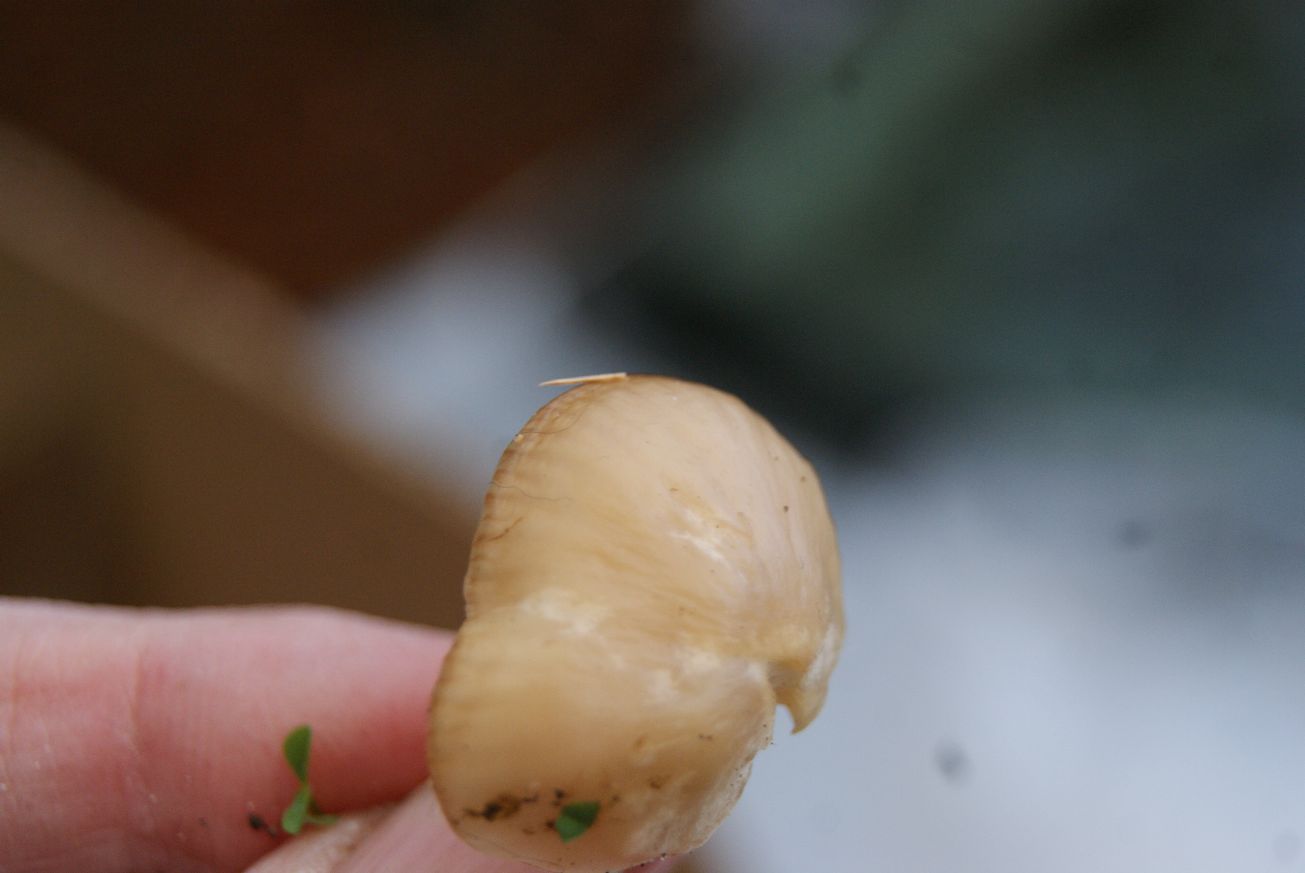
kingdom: Fungi
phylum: Basidiomycota
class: Agaricomycetes
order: Agaricales
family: Hygrophoraceae
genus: Cuphophyllus
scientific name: Cuphophyllus virgineus
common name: isabella-vokshat
